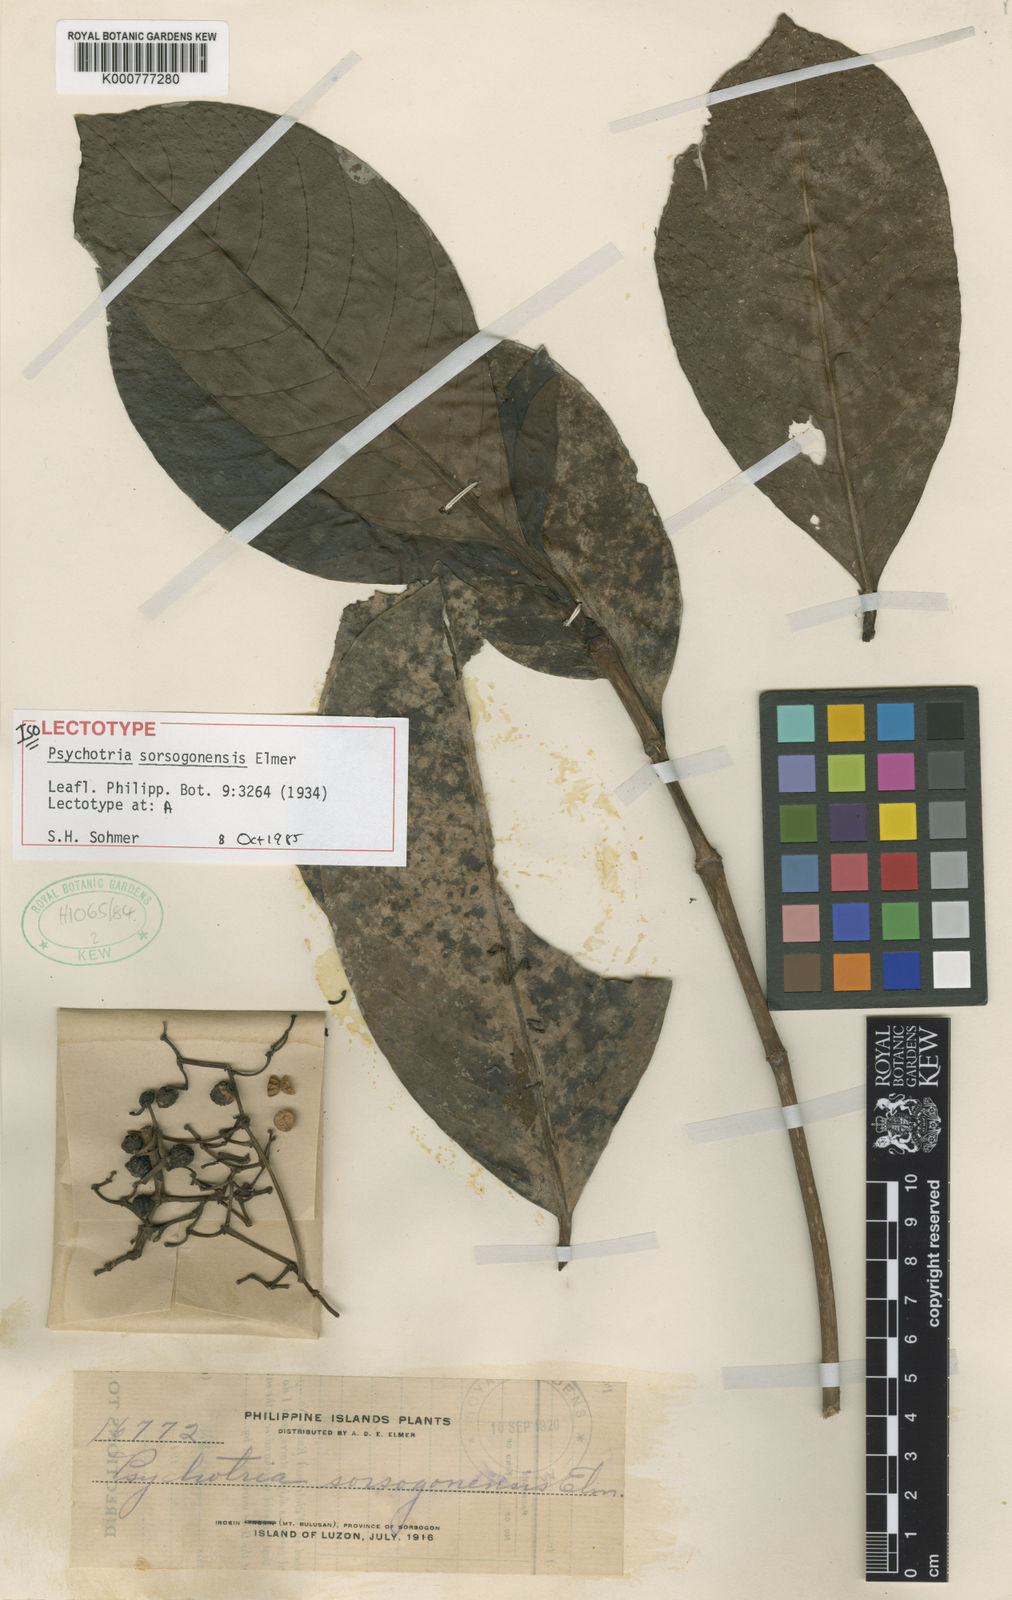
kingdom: Plantae
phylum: Tracheophyta
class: Magnoliopsida
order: Gentianales
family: Rubiaceae
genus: Psychotria
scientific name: Psychotria sorsogonensis
